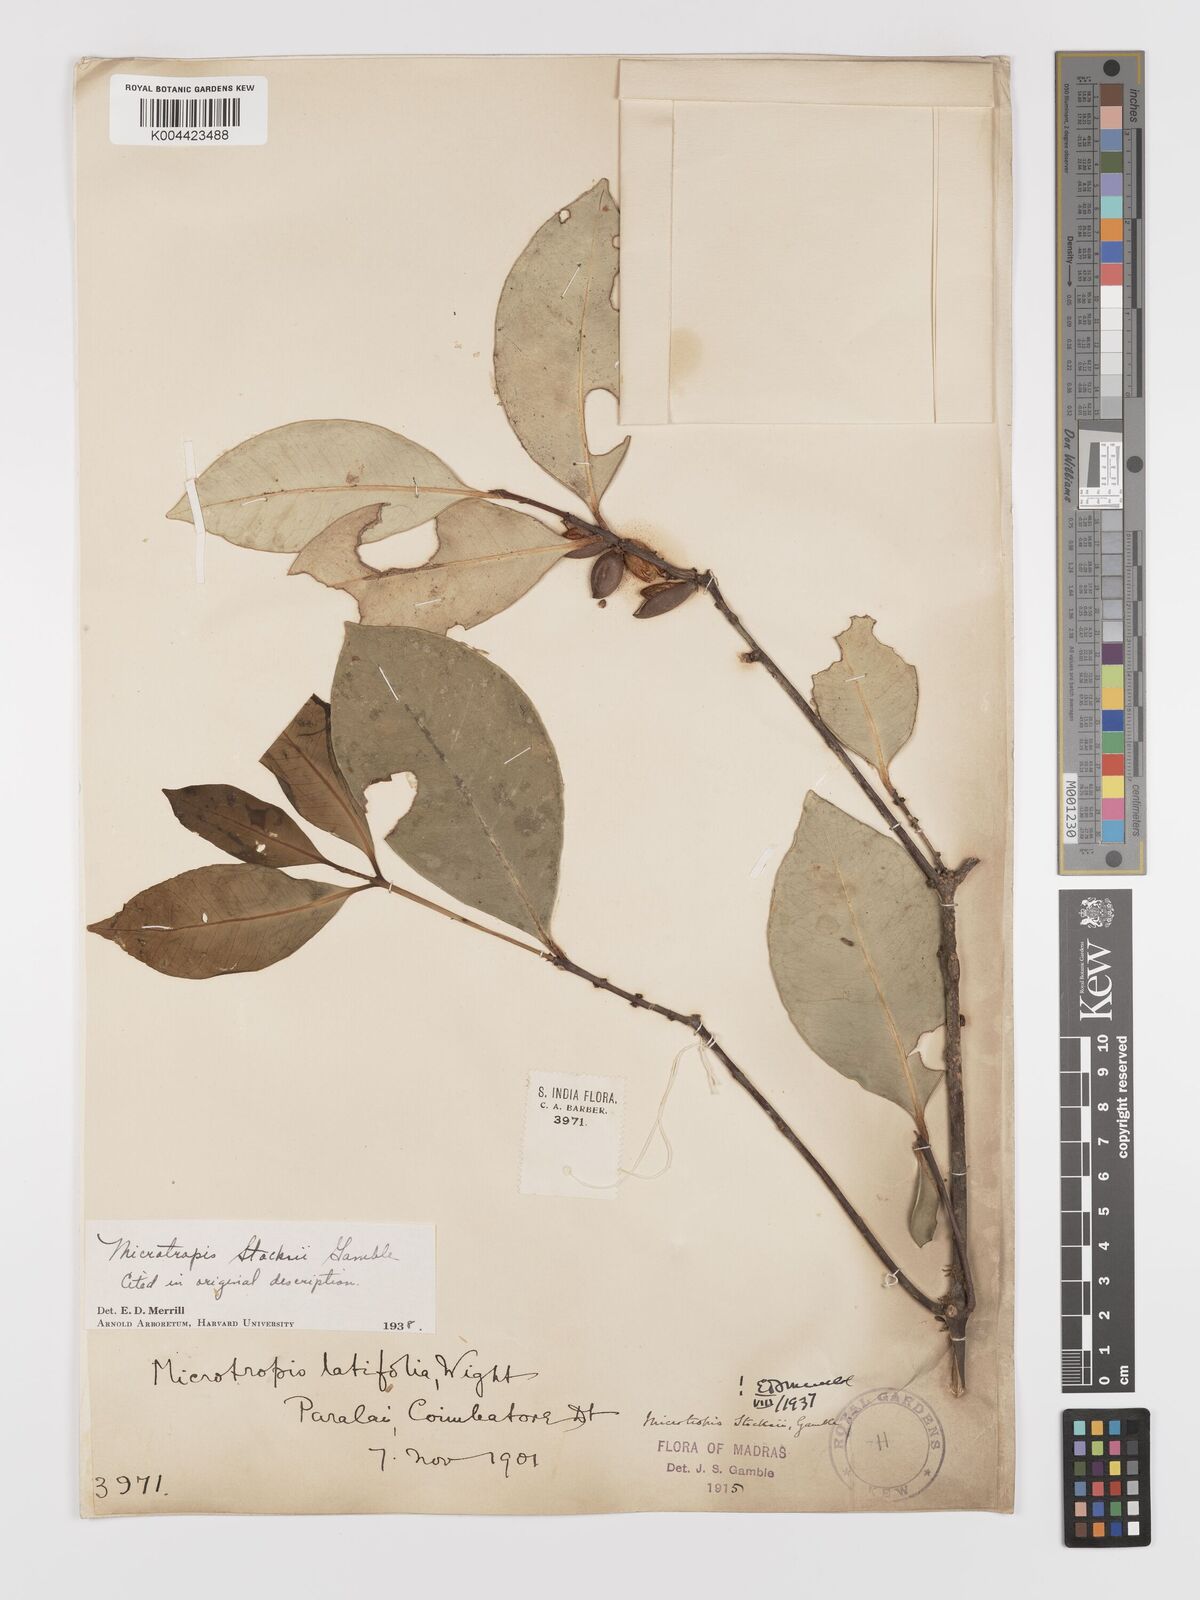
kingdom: Plantae
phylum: Tracheophyta
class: Magnoliopsida
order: Celastrales
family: Celastraceae
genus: Microtropis
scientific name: Microtropis stocksii
